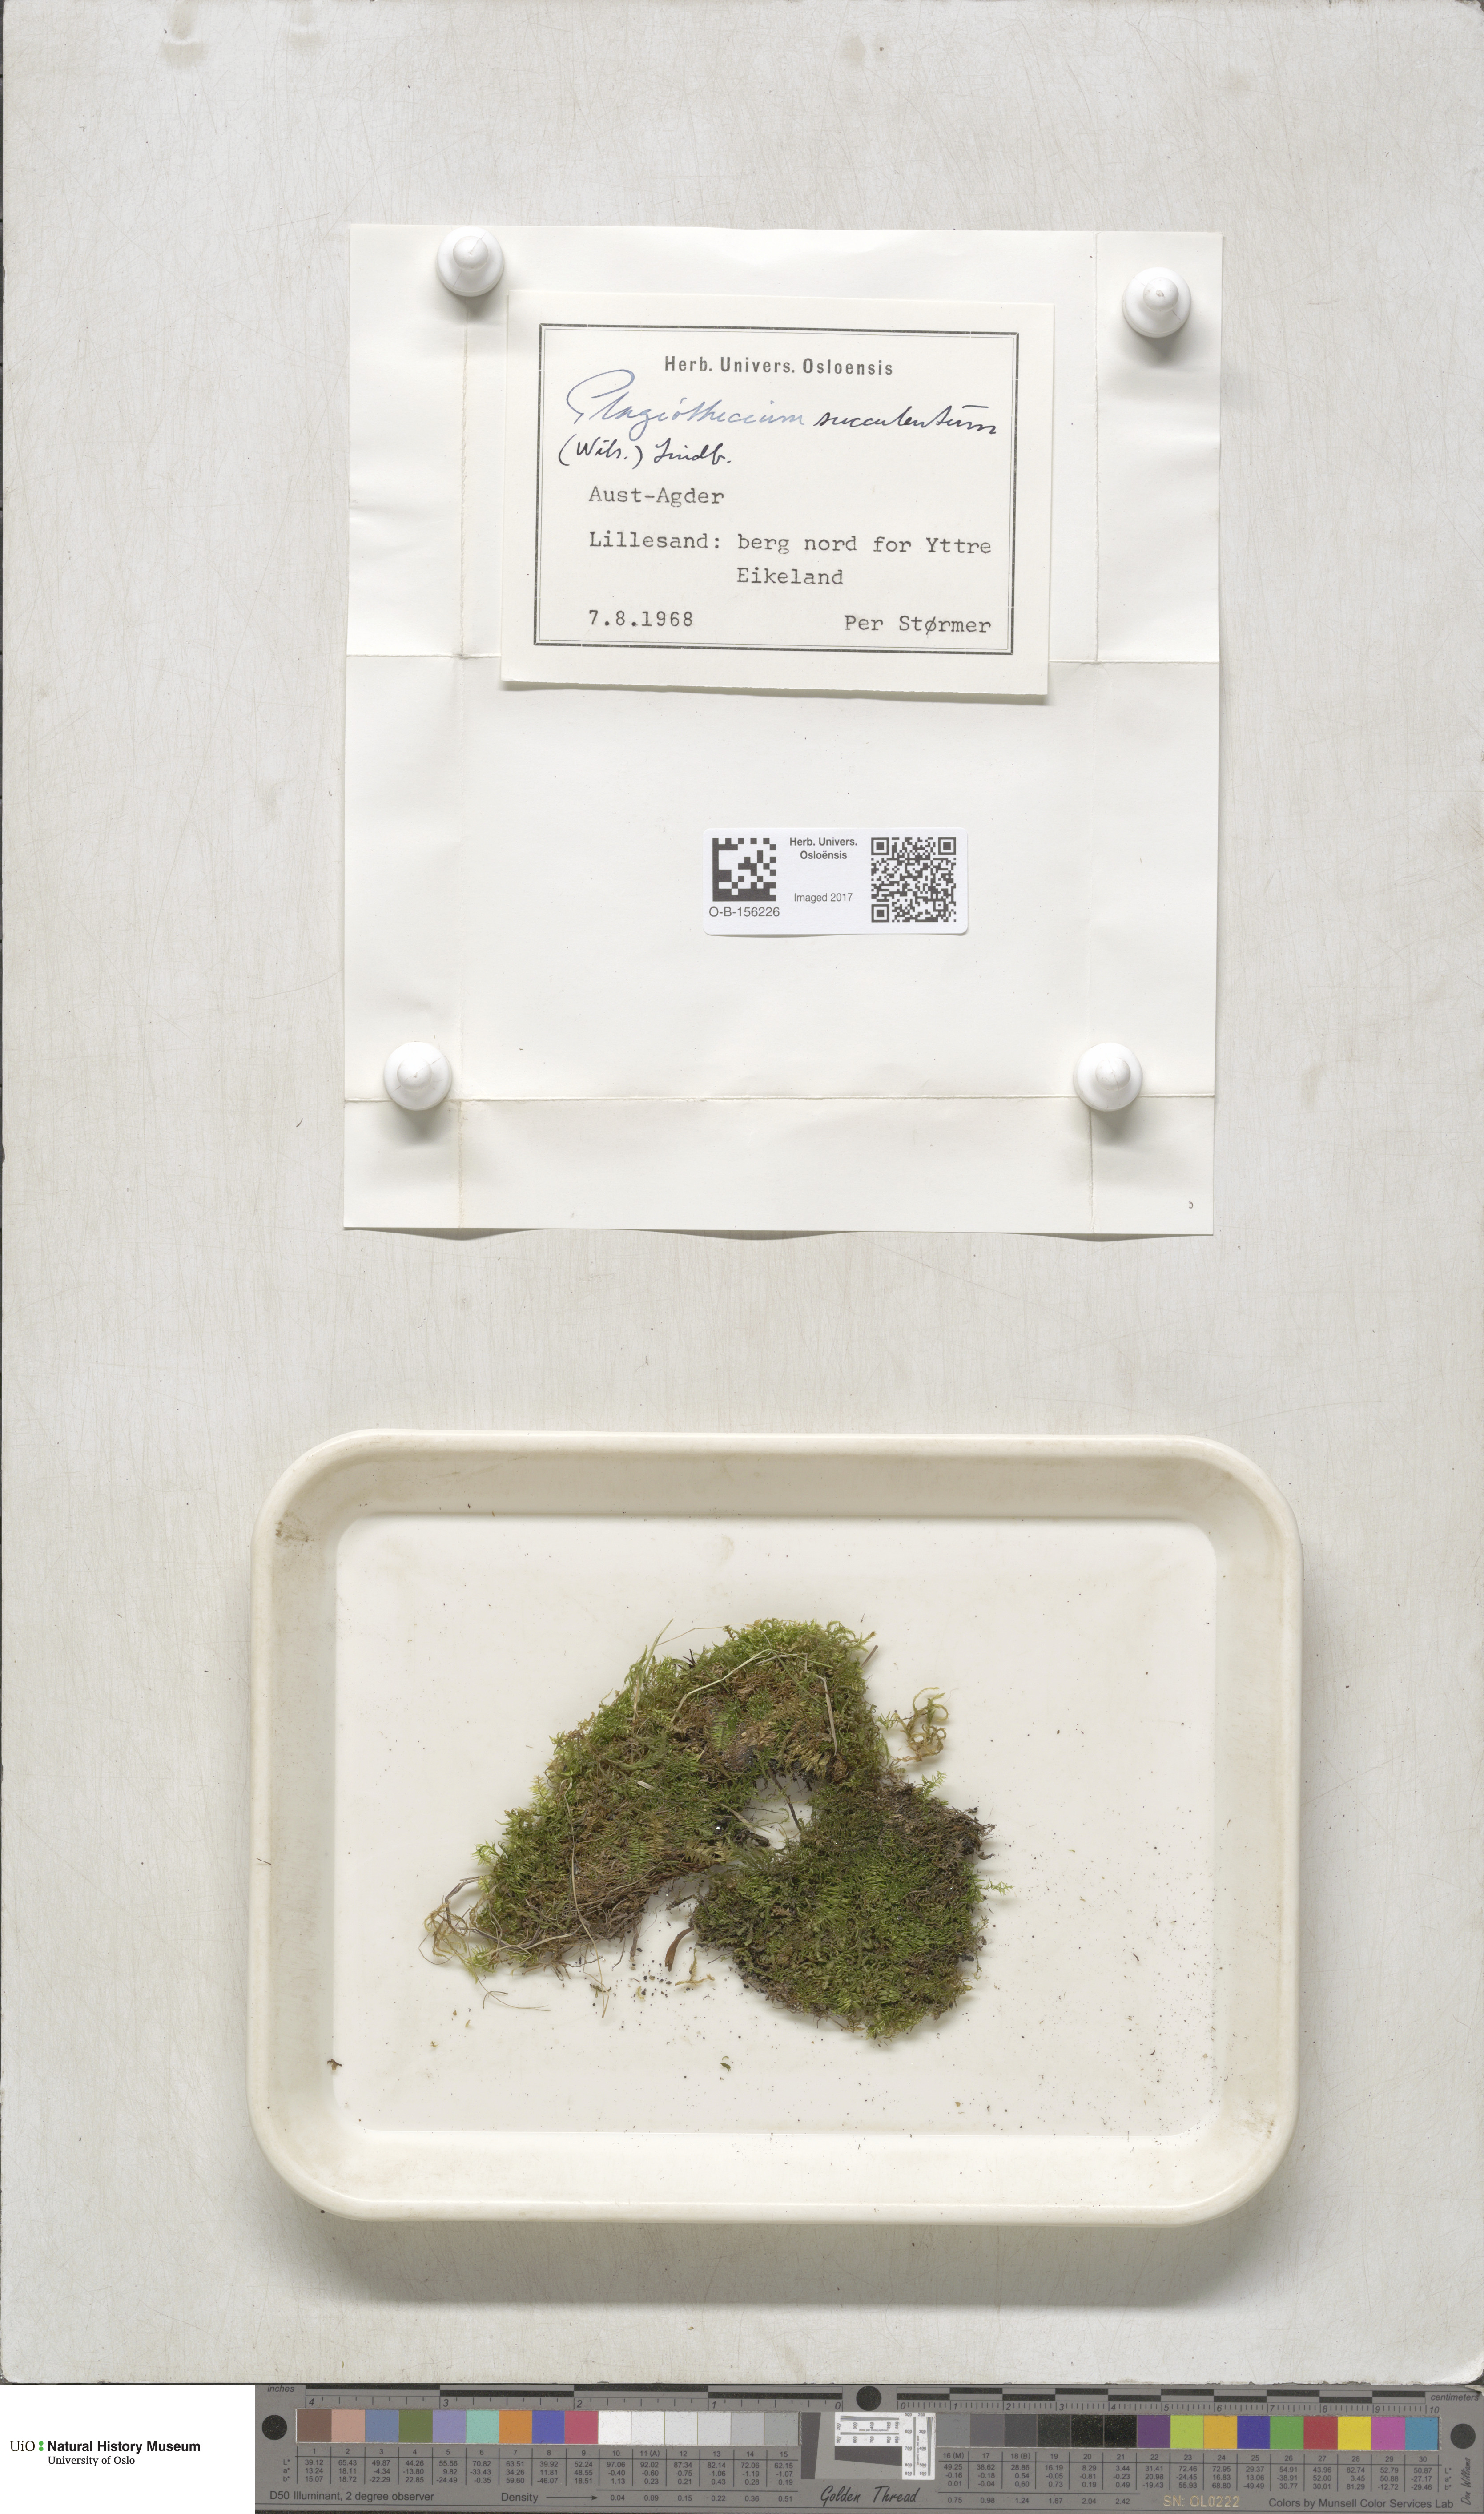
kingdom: Plantae
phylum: Bryophyta
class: Bryopsida
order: Hypnales
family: Plagiotheciaceae
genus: Plagiothecium
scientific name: Plagiothecium nemorale
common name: Woodsy silk-moss
